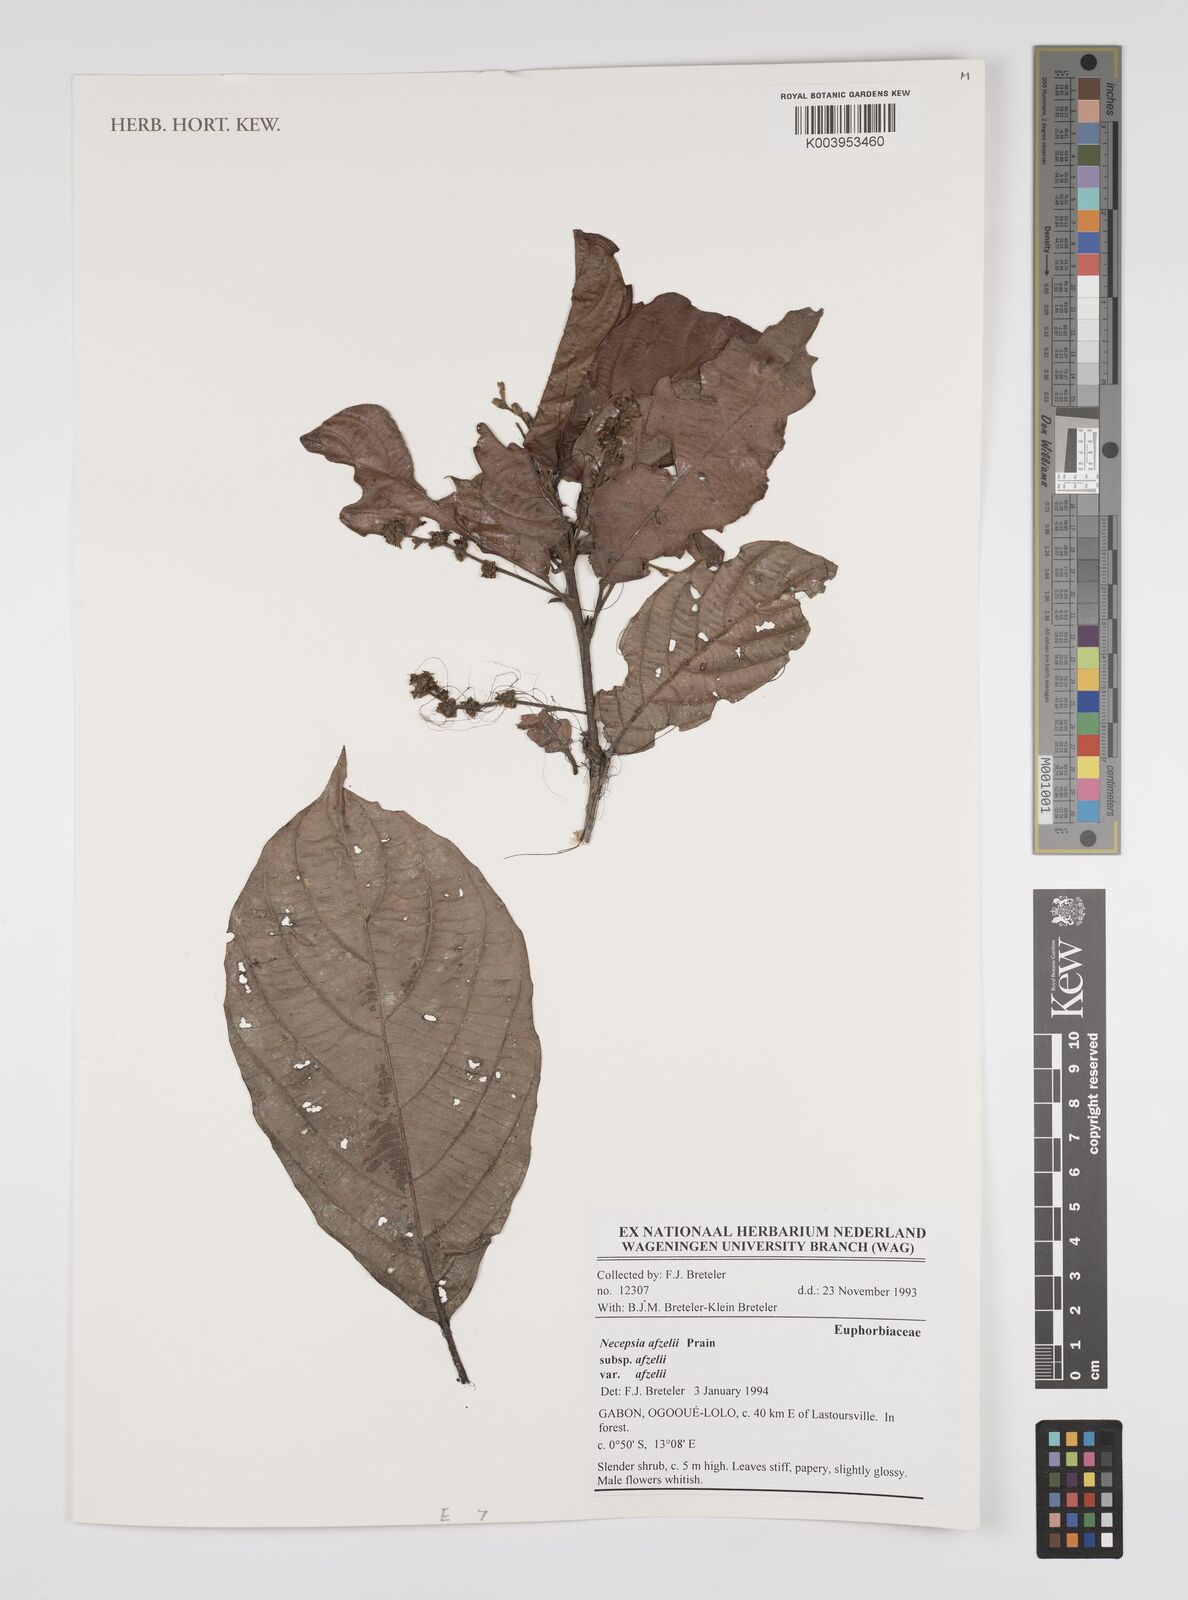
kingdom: Plantae
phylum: Tracheophyta
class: Magnoliopsida
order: Malpighiales
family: Euphorbiaceae
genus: Necepsia
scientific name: Necepsia afzelii
